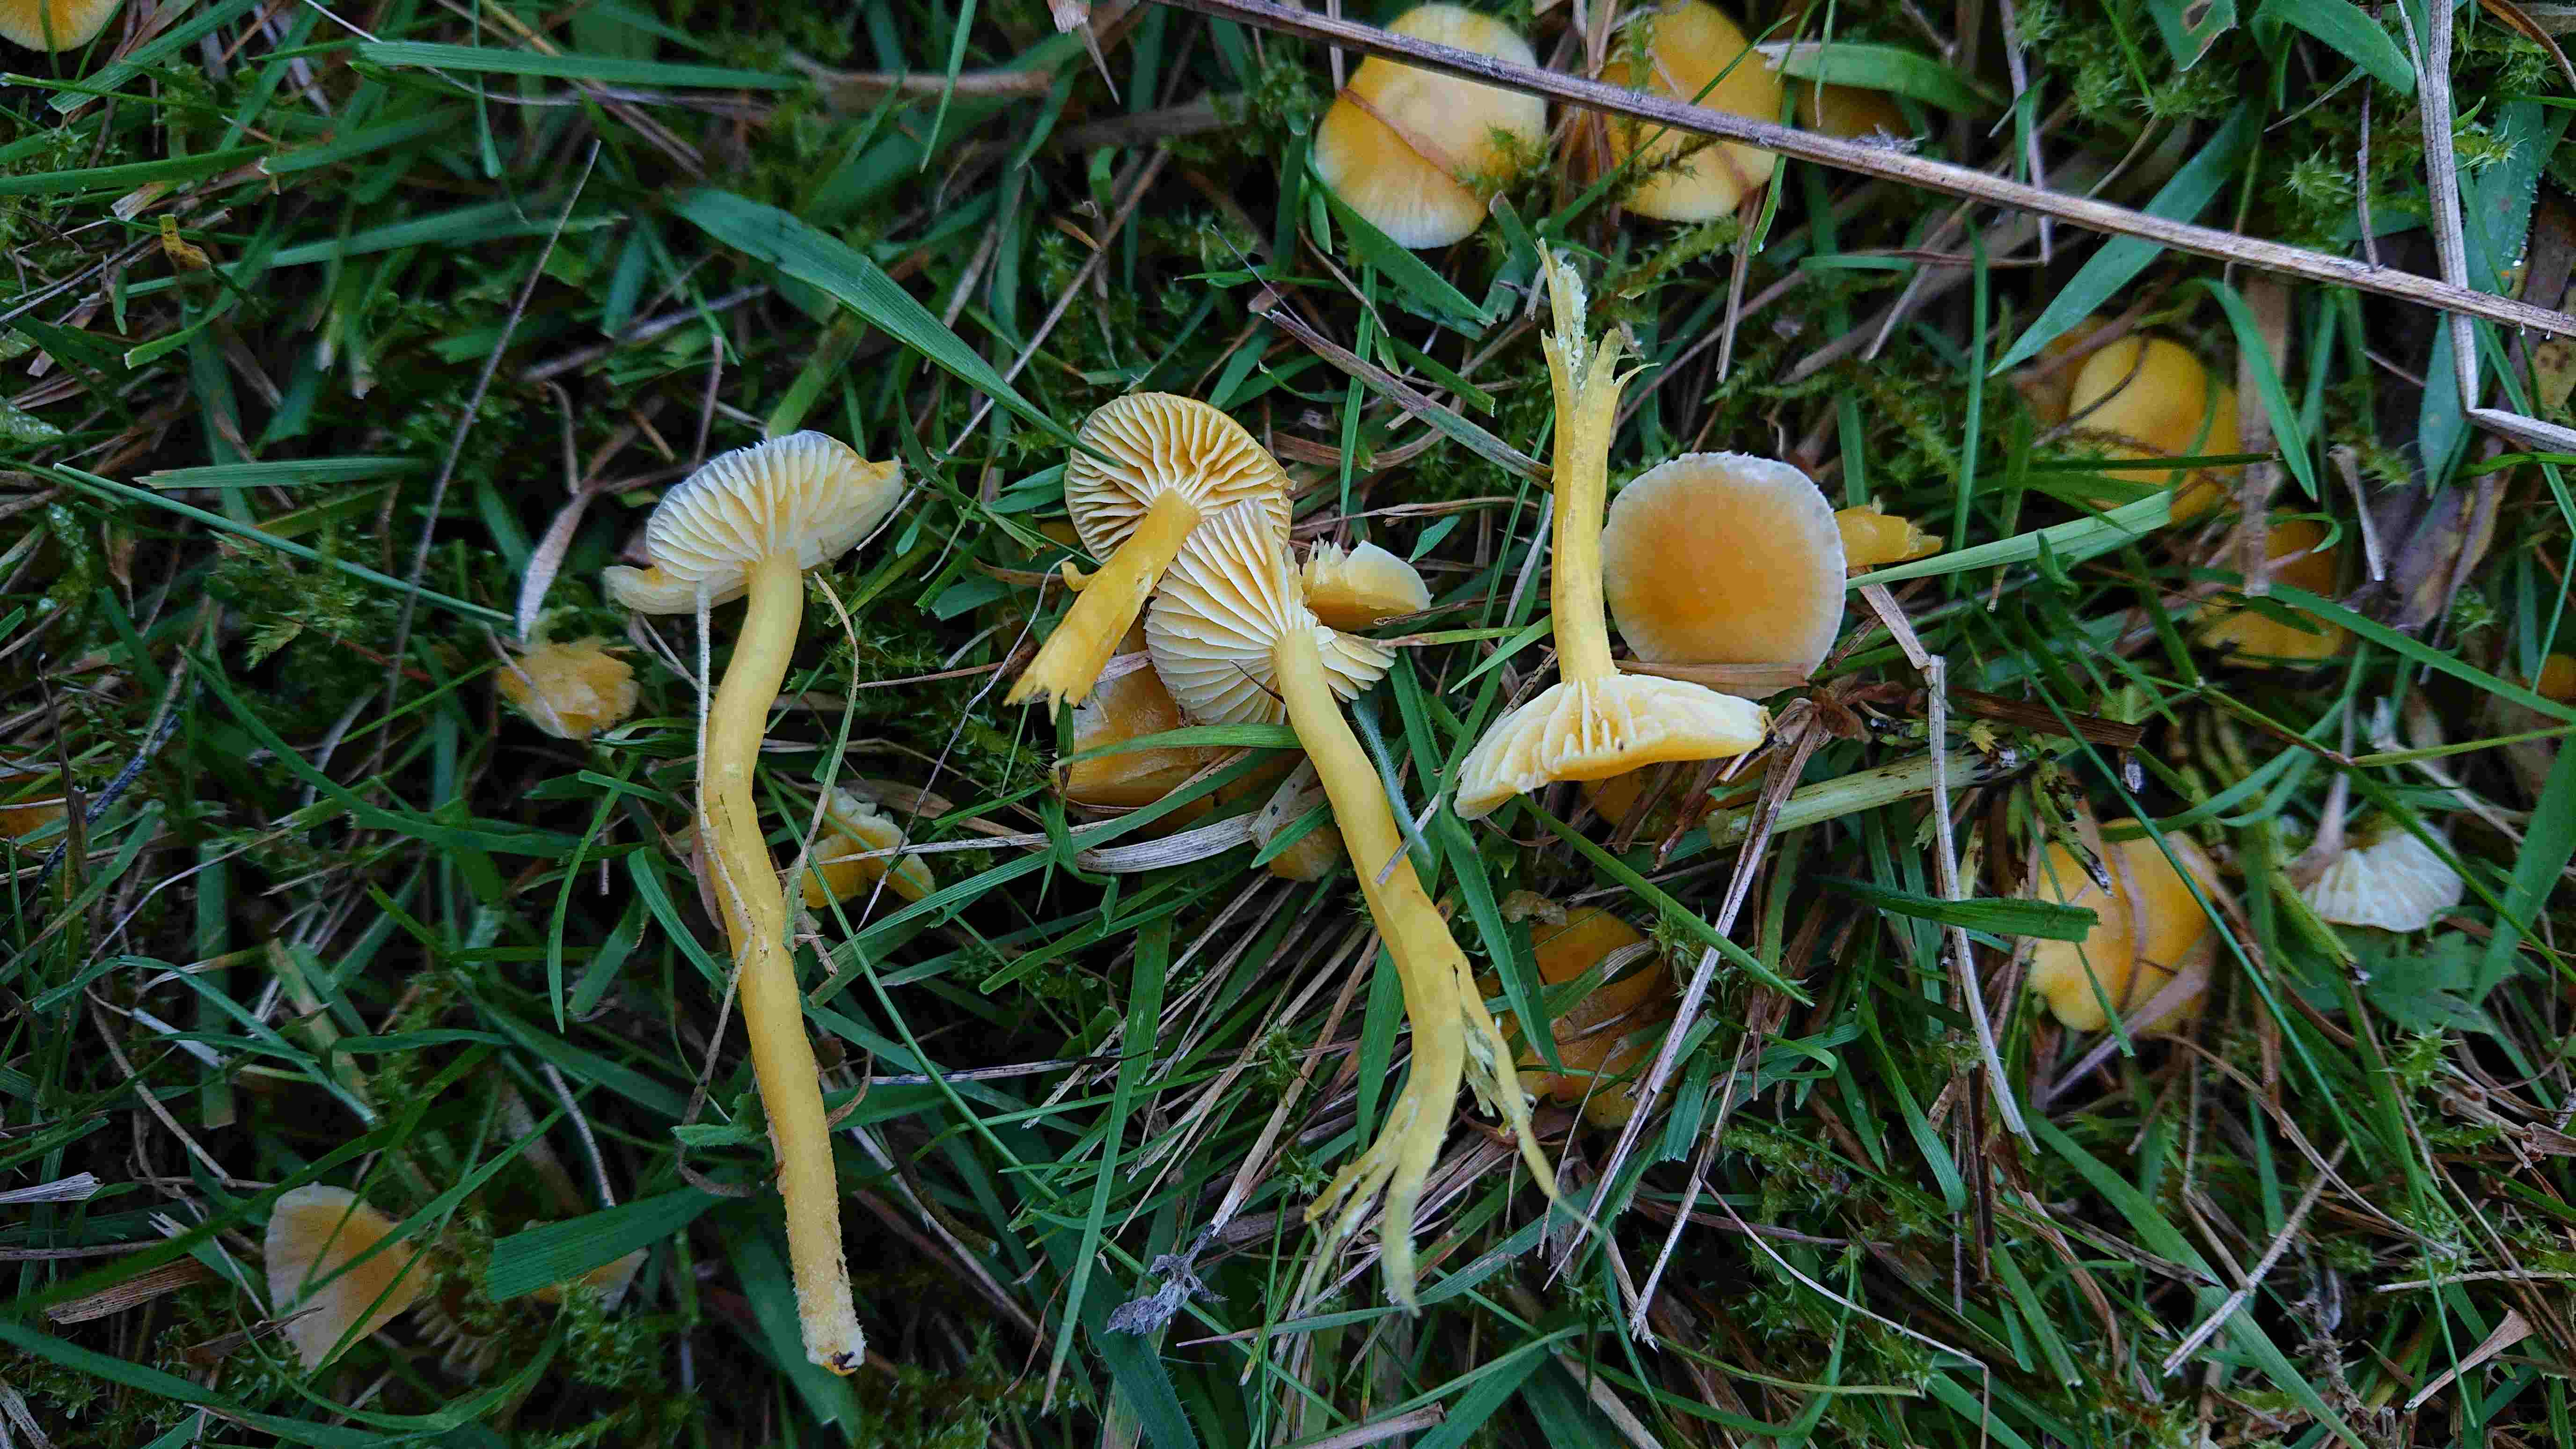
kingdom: Fungi
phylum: Basidiomycota
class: Agaricomycetes
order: Agaricales
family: Hygrophoraceae
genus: Hygrocybe
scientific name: Hygrocybe ceracea
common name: voksgul vokshat
